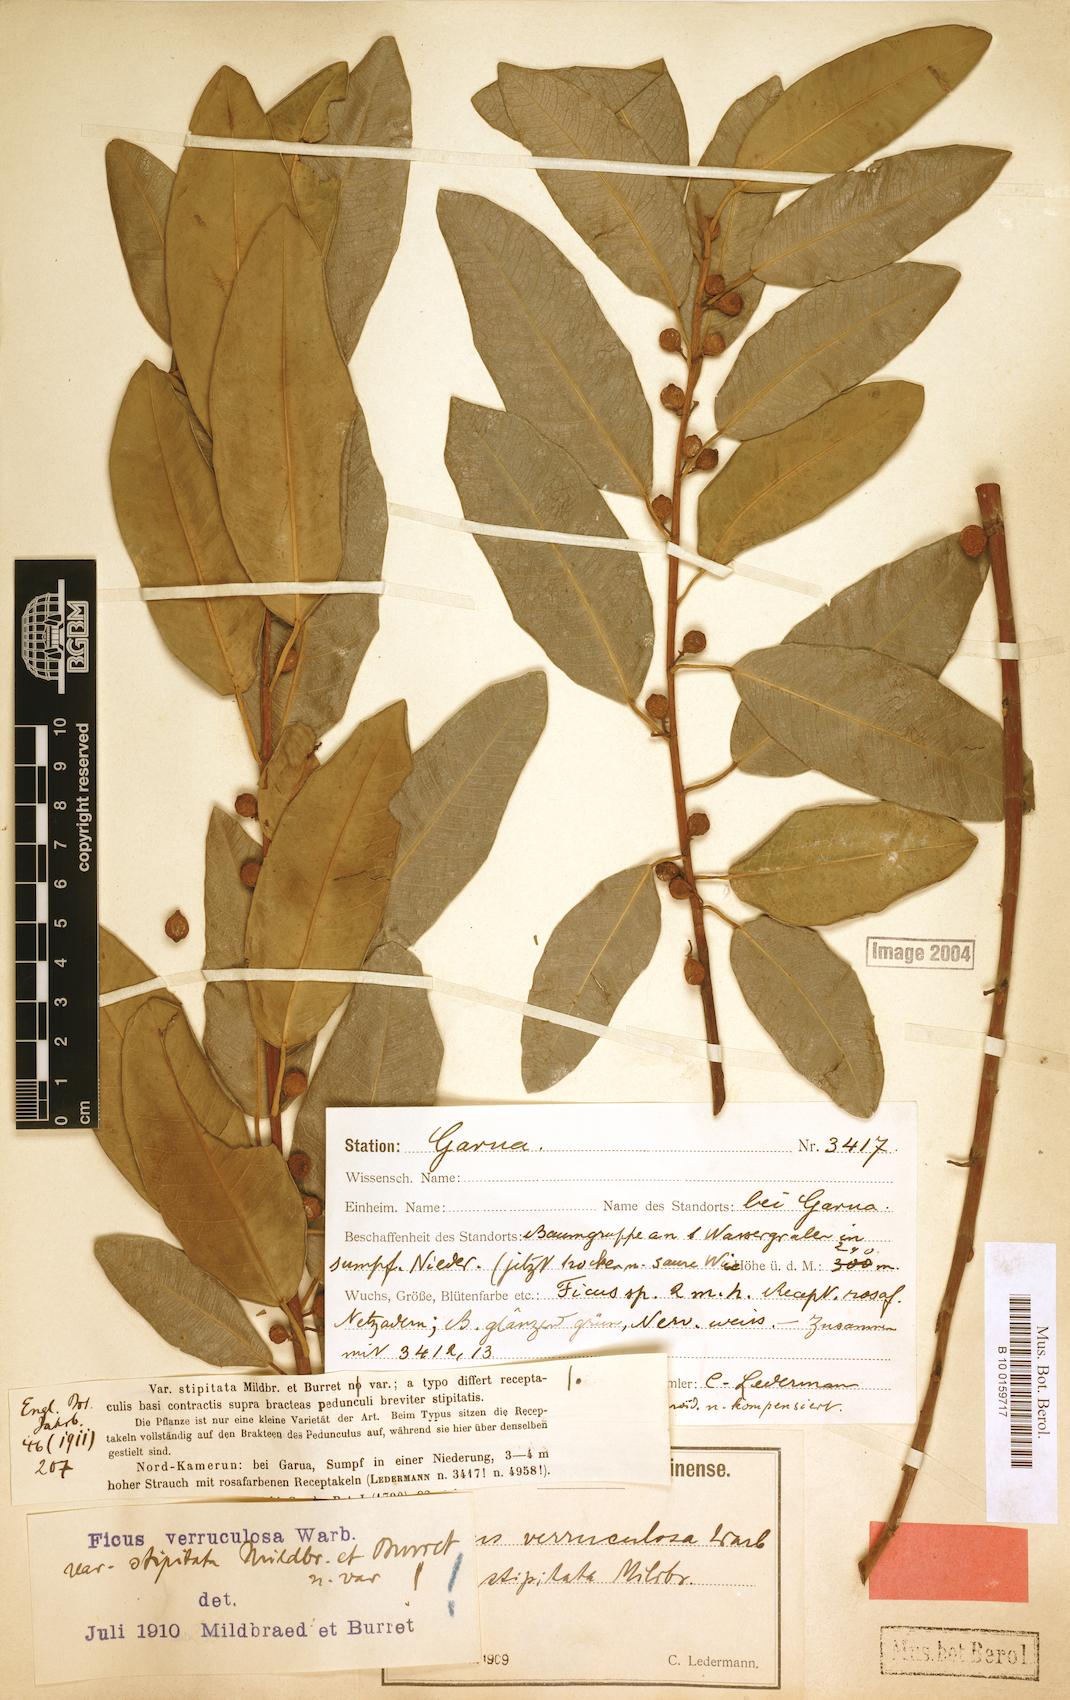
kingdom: Plantae
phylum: Tracheophyta
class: Magnoliopsida
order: Rosales
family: Moraceae
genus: Ficus
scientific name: Ficus verruculosa
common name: Water fig
